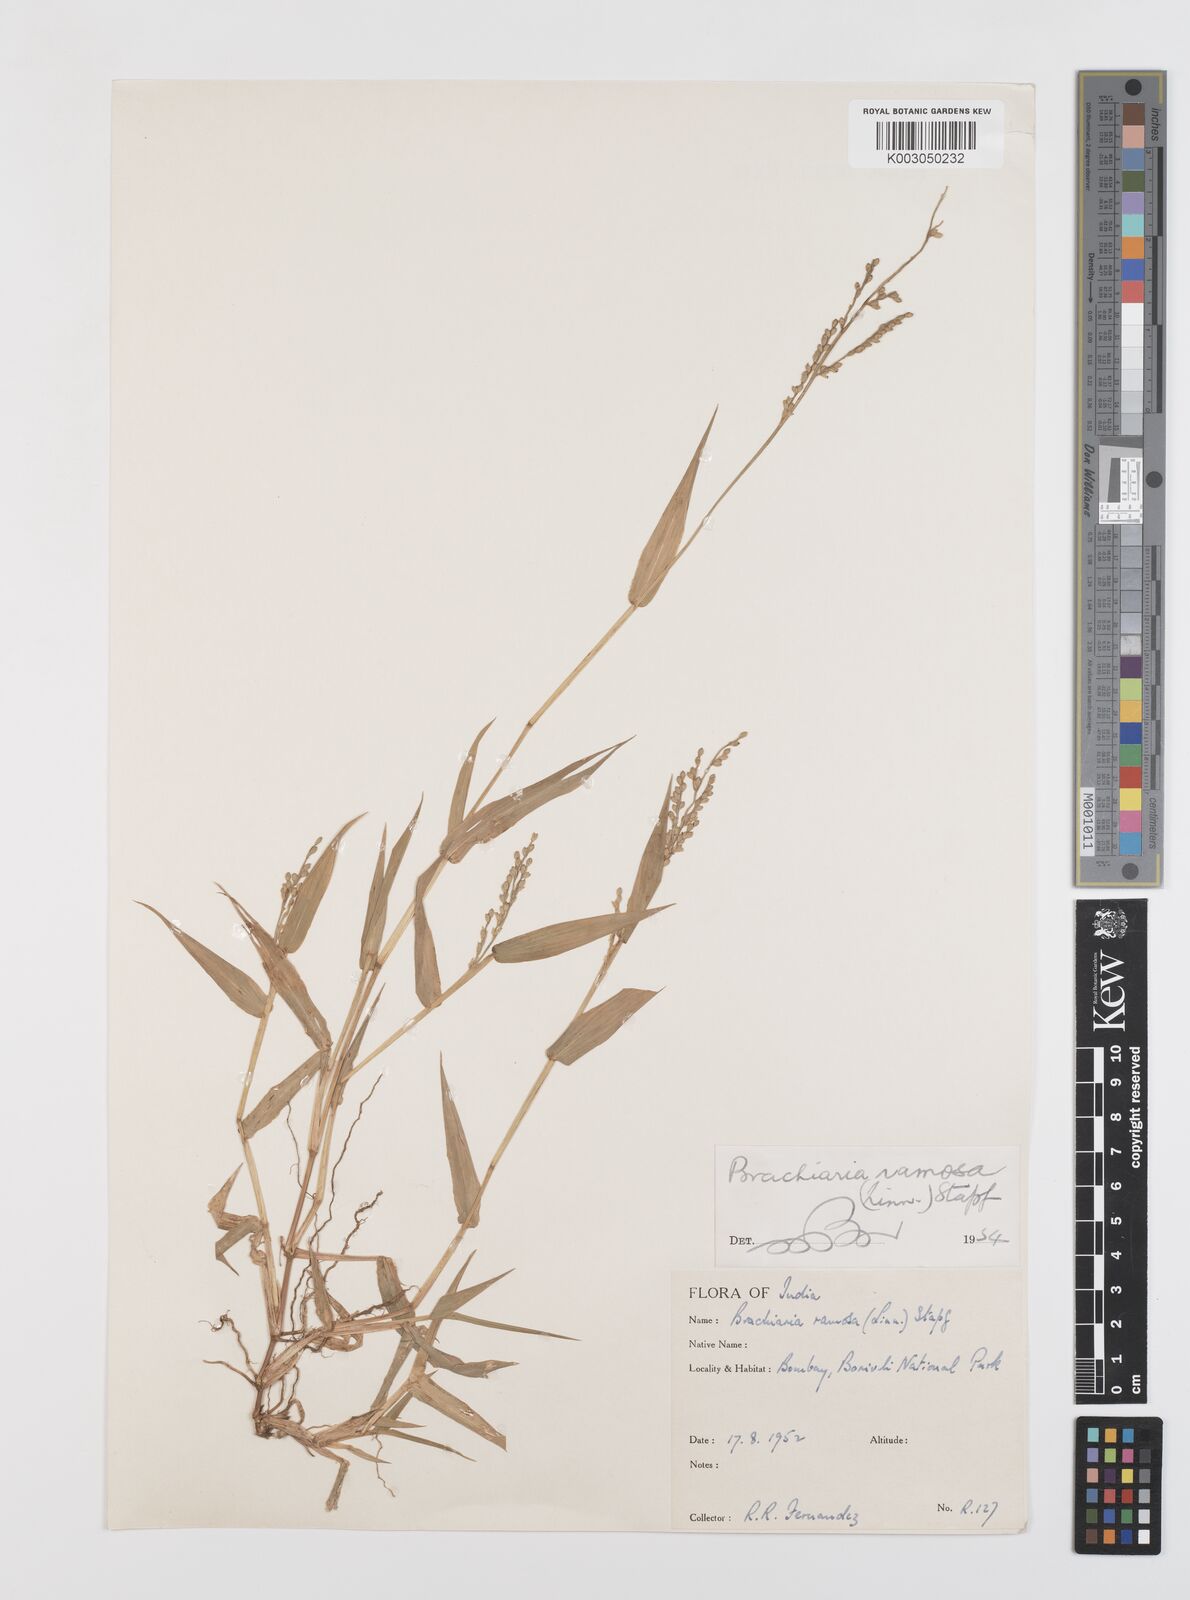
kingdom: Plantae
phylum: Tracheophyta
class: Liliopsida
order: Poales
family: Poaceae
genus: Urochloa
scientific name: Urochloa ramosa
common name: Browntop millet
